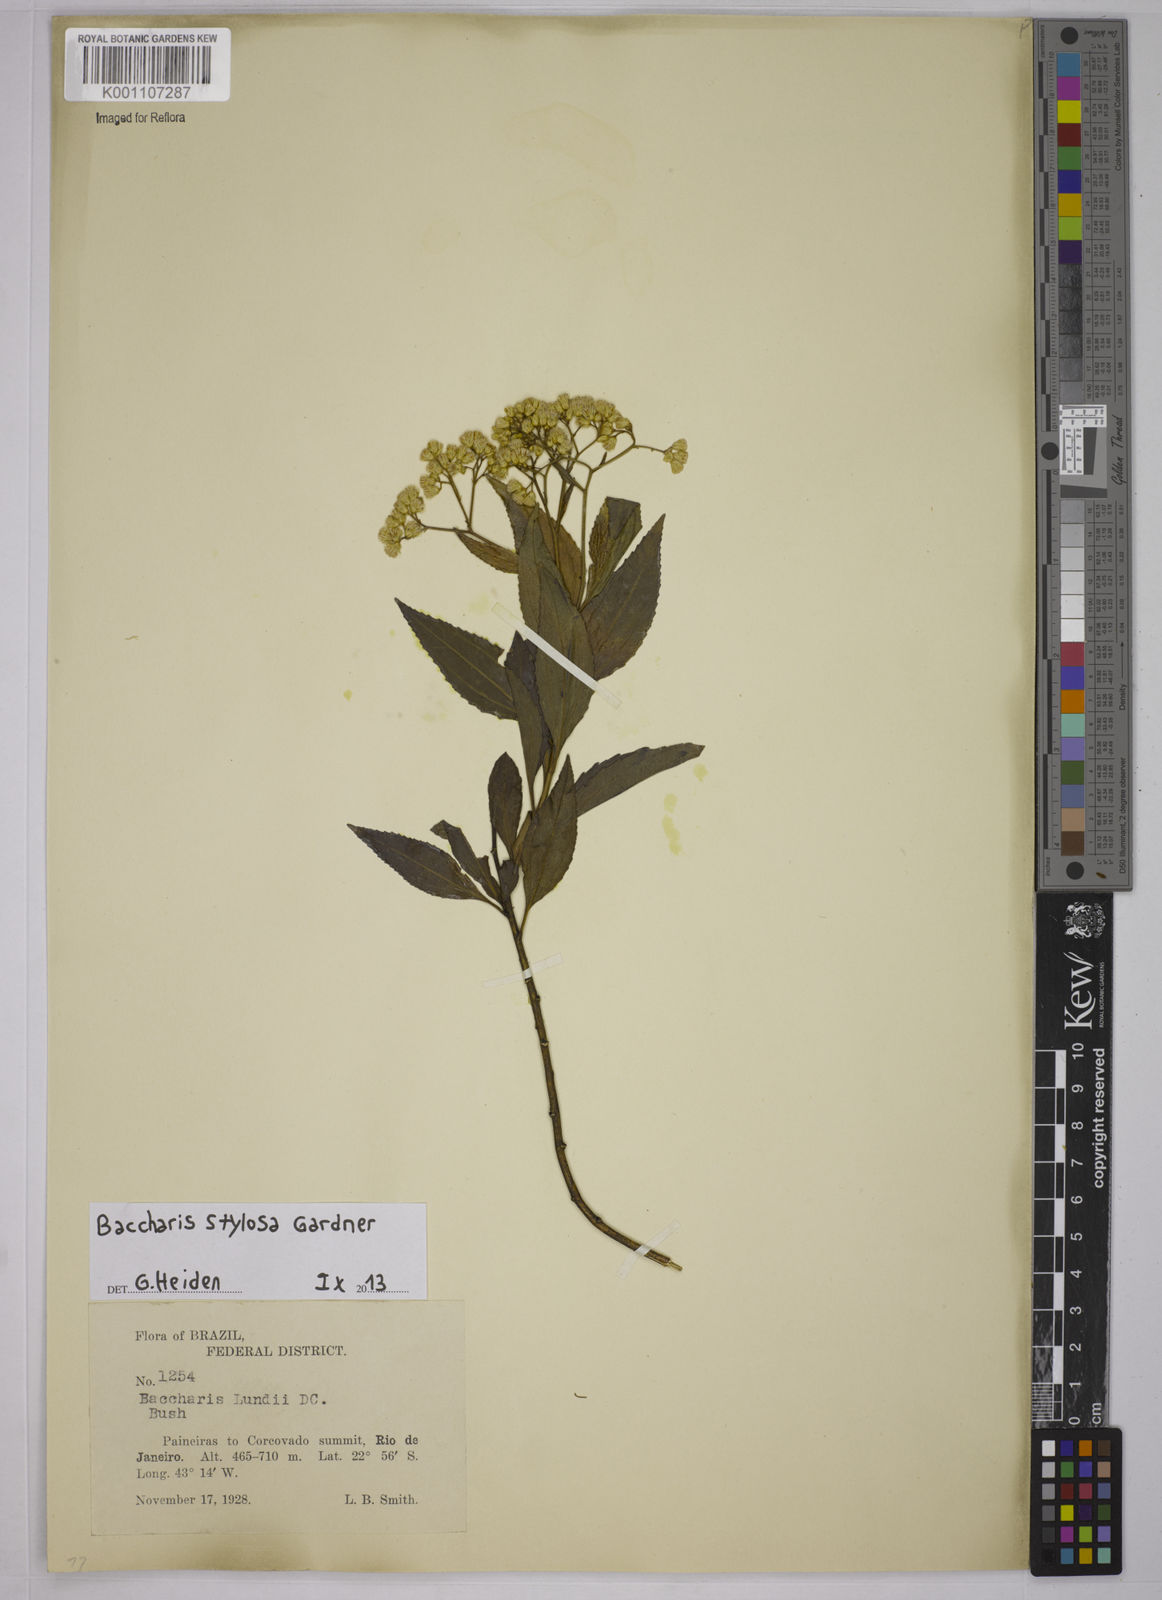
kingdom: Plantae
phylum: Tracheophyta
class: Magnoliopsida
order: Asterales
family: Asteraceae
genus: Baccharis
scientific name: Baccharis stylosa
